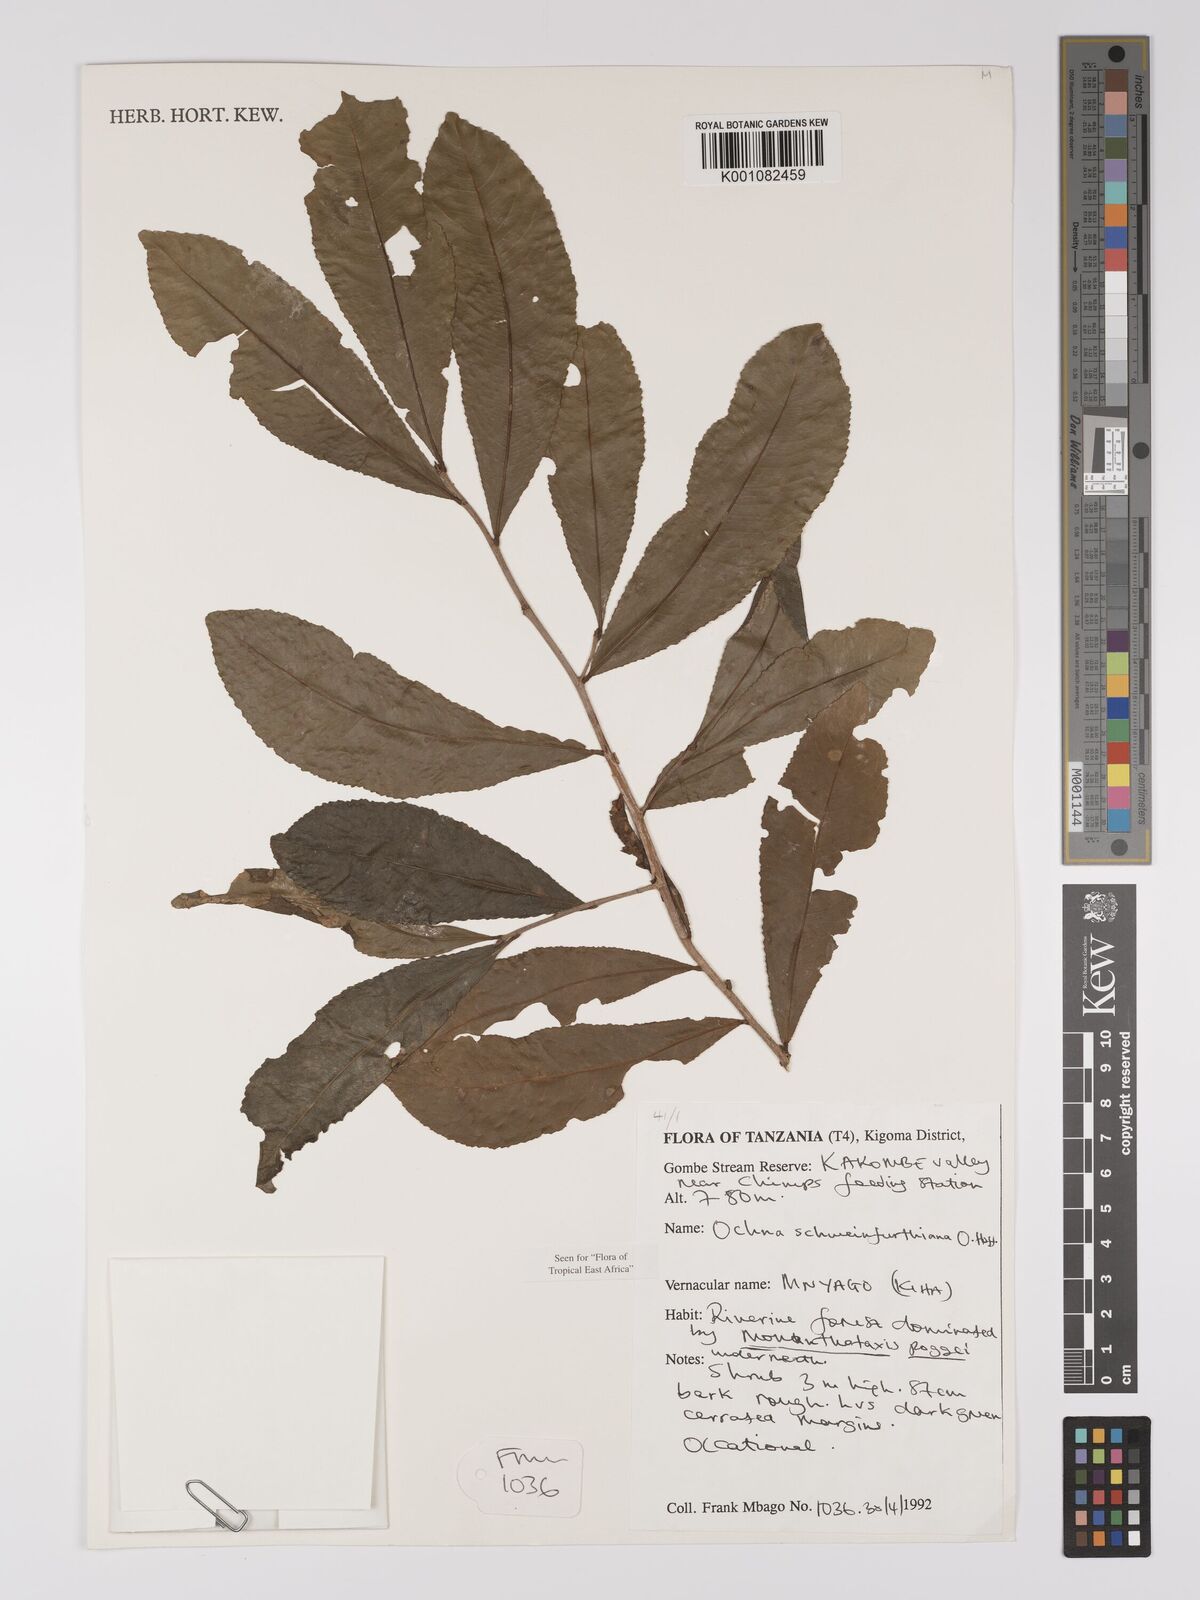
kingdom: Plantae
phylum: Tracheophyta
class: Magnoliopsida
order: Malpighiales
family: Ochnaceae
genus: Ochna
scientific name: Ochna schweinfurthiana
